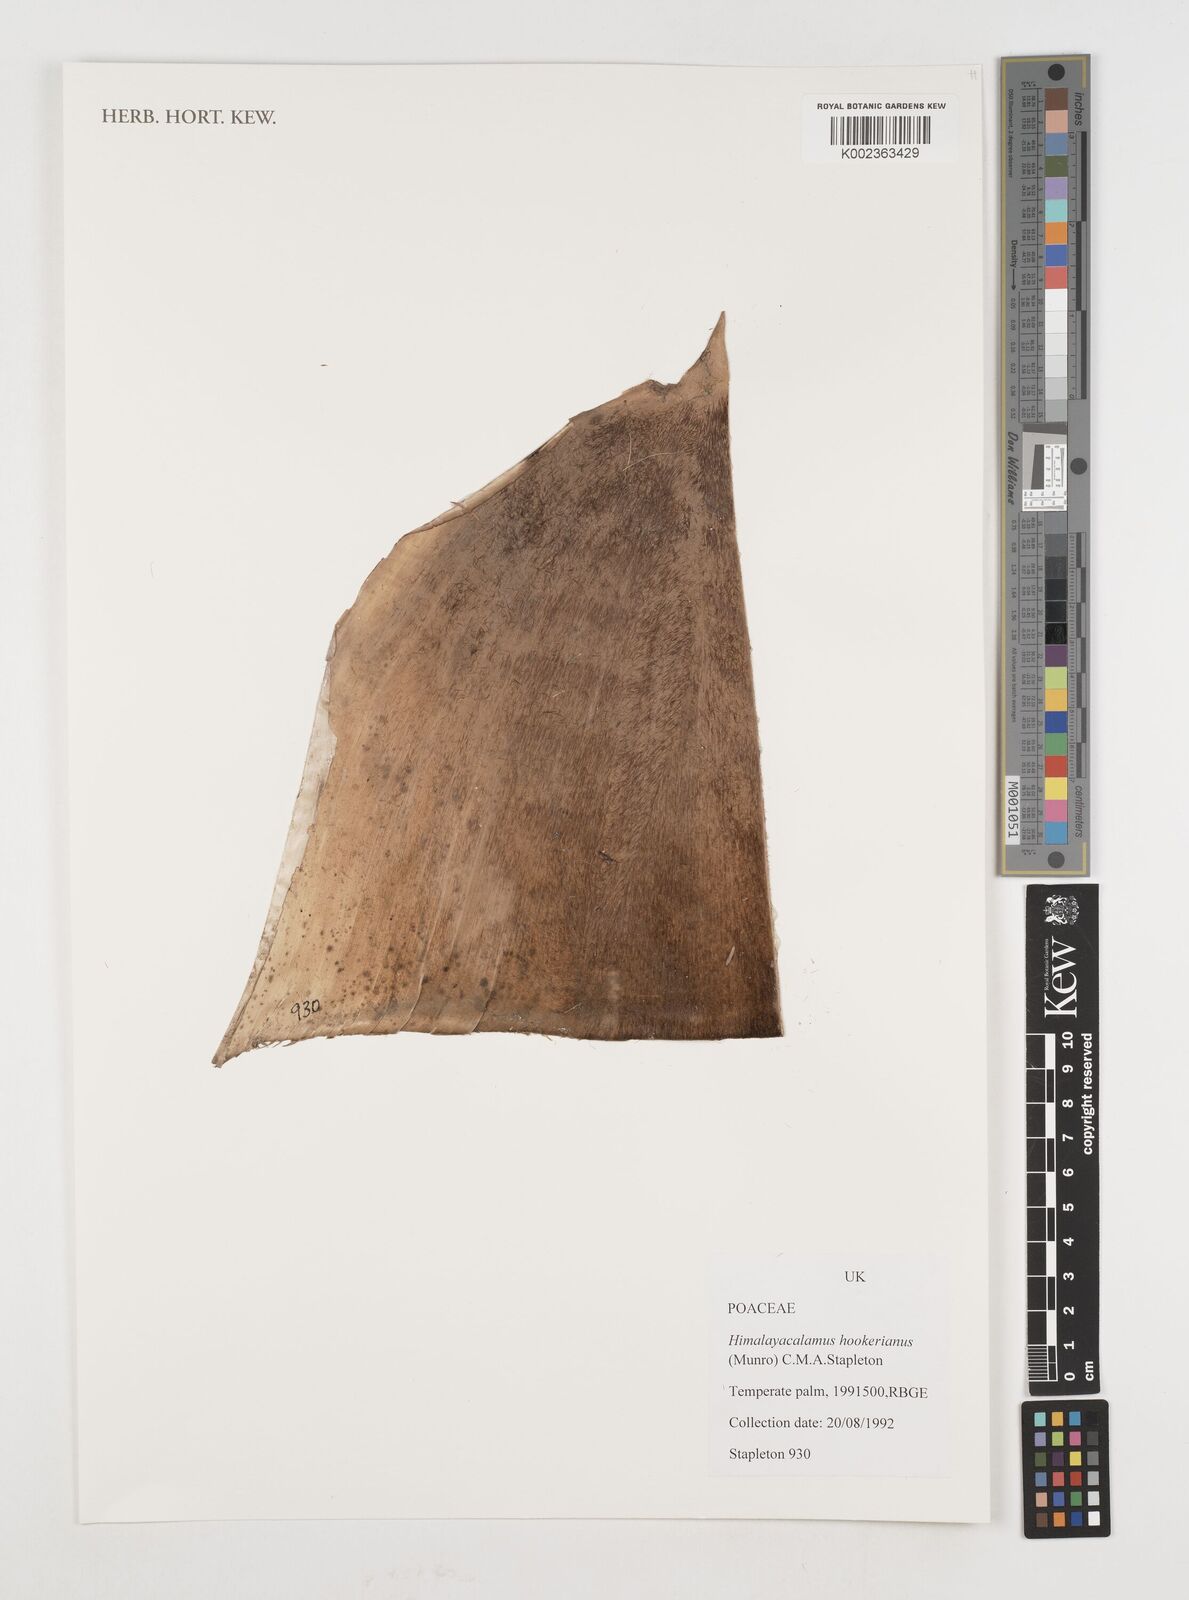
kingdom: Plantae
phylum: Tracheophyta
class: Liliopsida
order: Poales
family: Poaceae
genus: Himalayacalamus
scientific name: Himalayacalamus hookerianus
